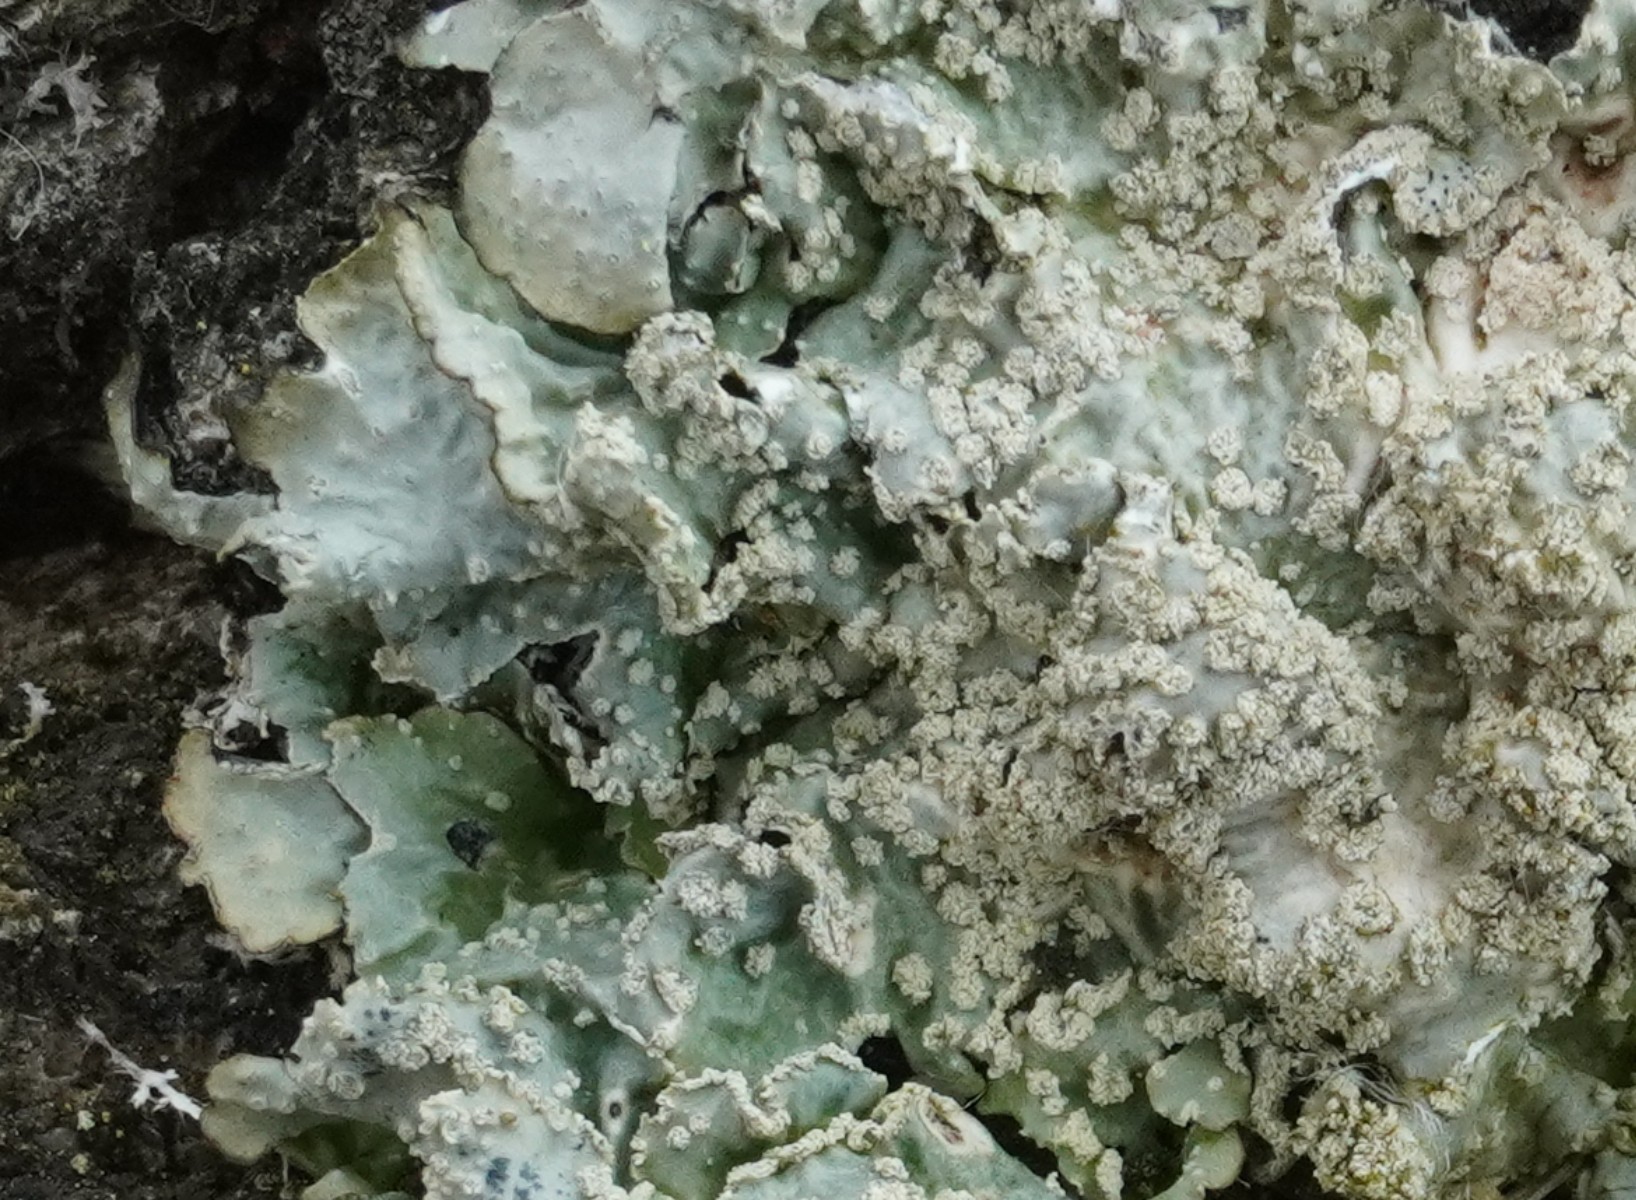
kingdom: Fungi
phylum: Ascomycota
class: Lecanoromycetes
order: Lecanorales
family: Parmeliaceae
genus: Punctelia
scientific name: Punctelia subrudecta
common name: punkt-skållav
